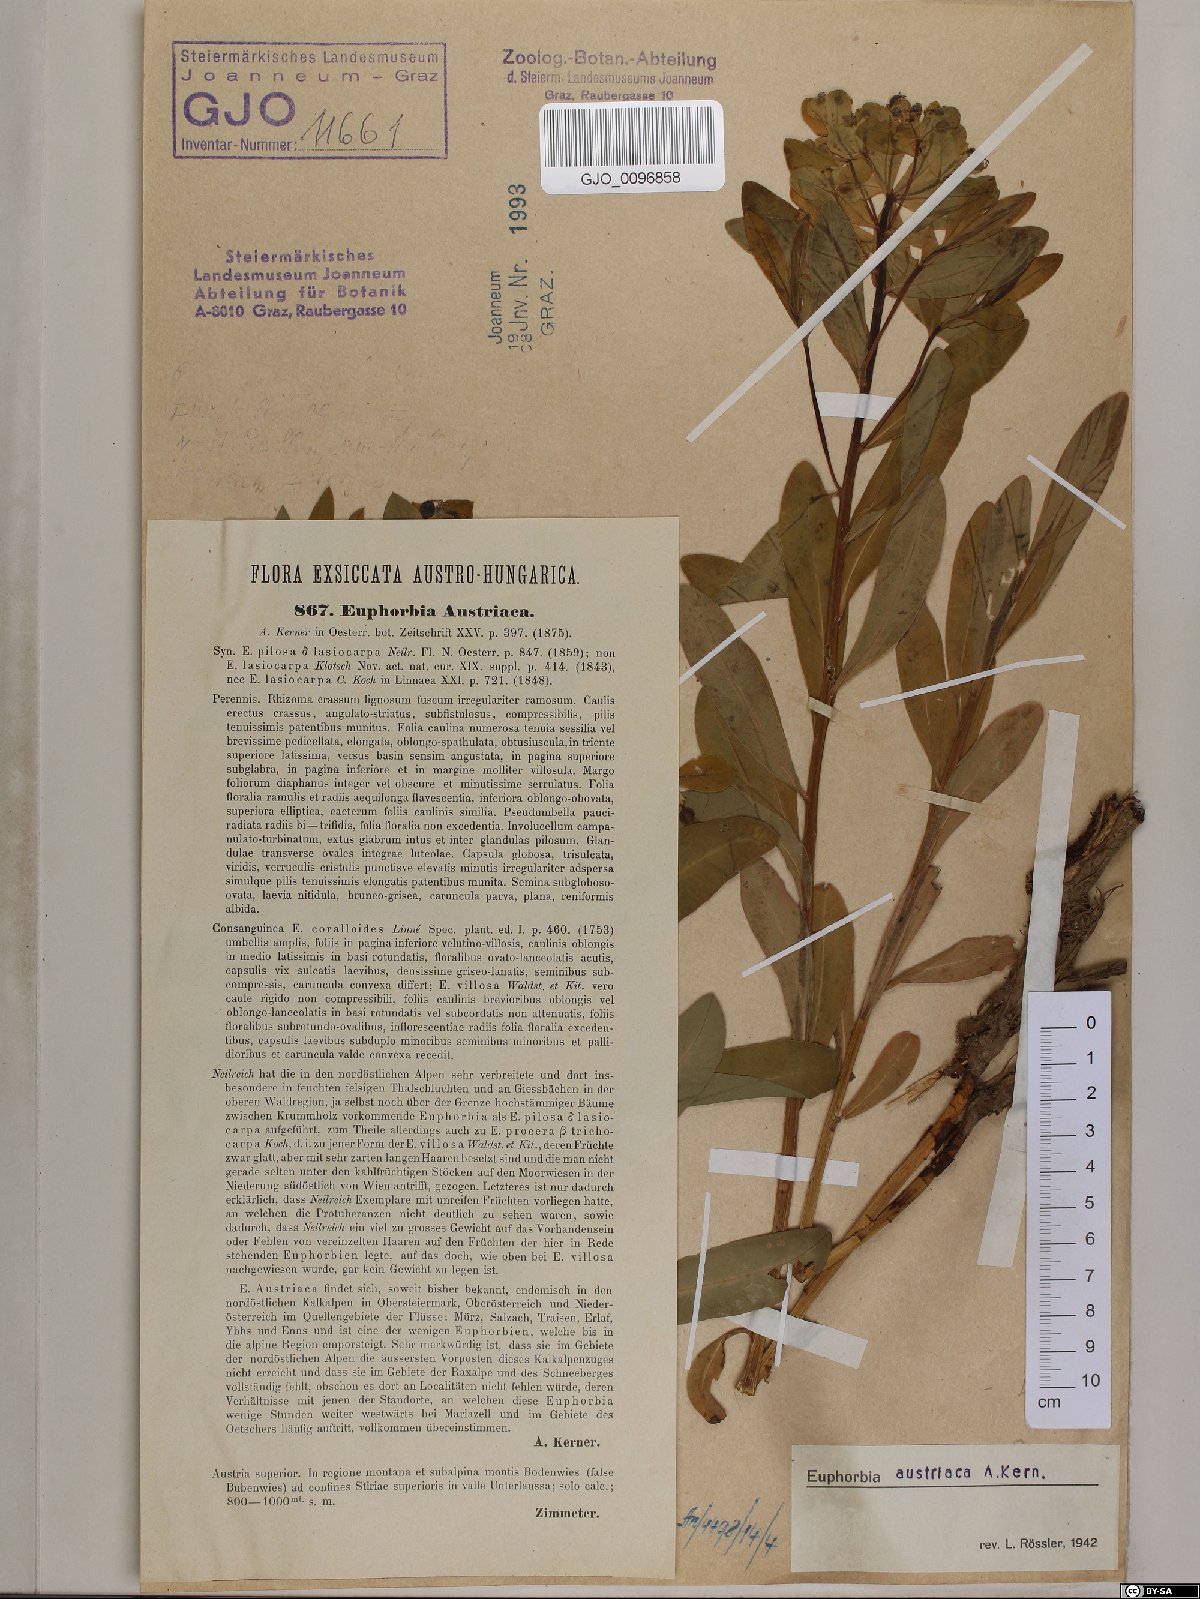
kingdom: Plantae
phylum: Tracheophyta
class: Magnoliopsida
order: Malpighiales
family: Euphorbiaceae
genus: Euphorbia
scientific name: Euphorbia austriaca
